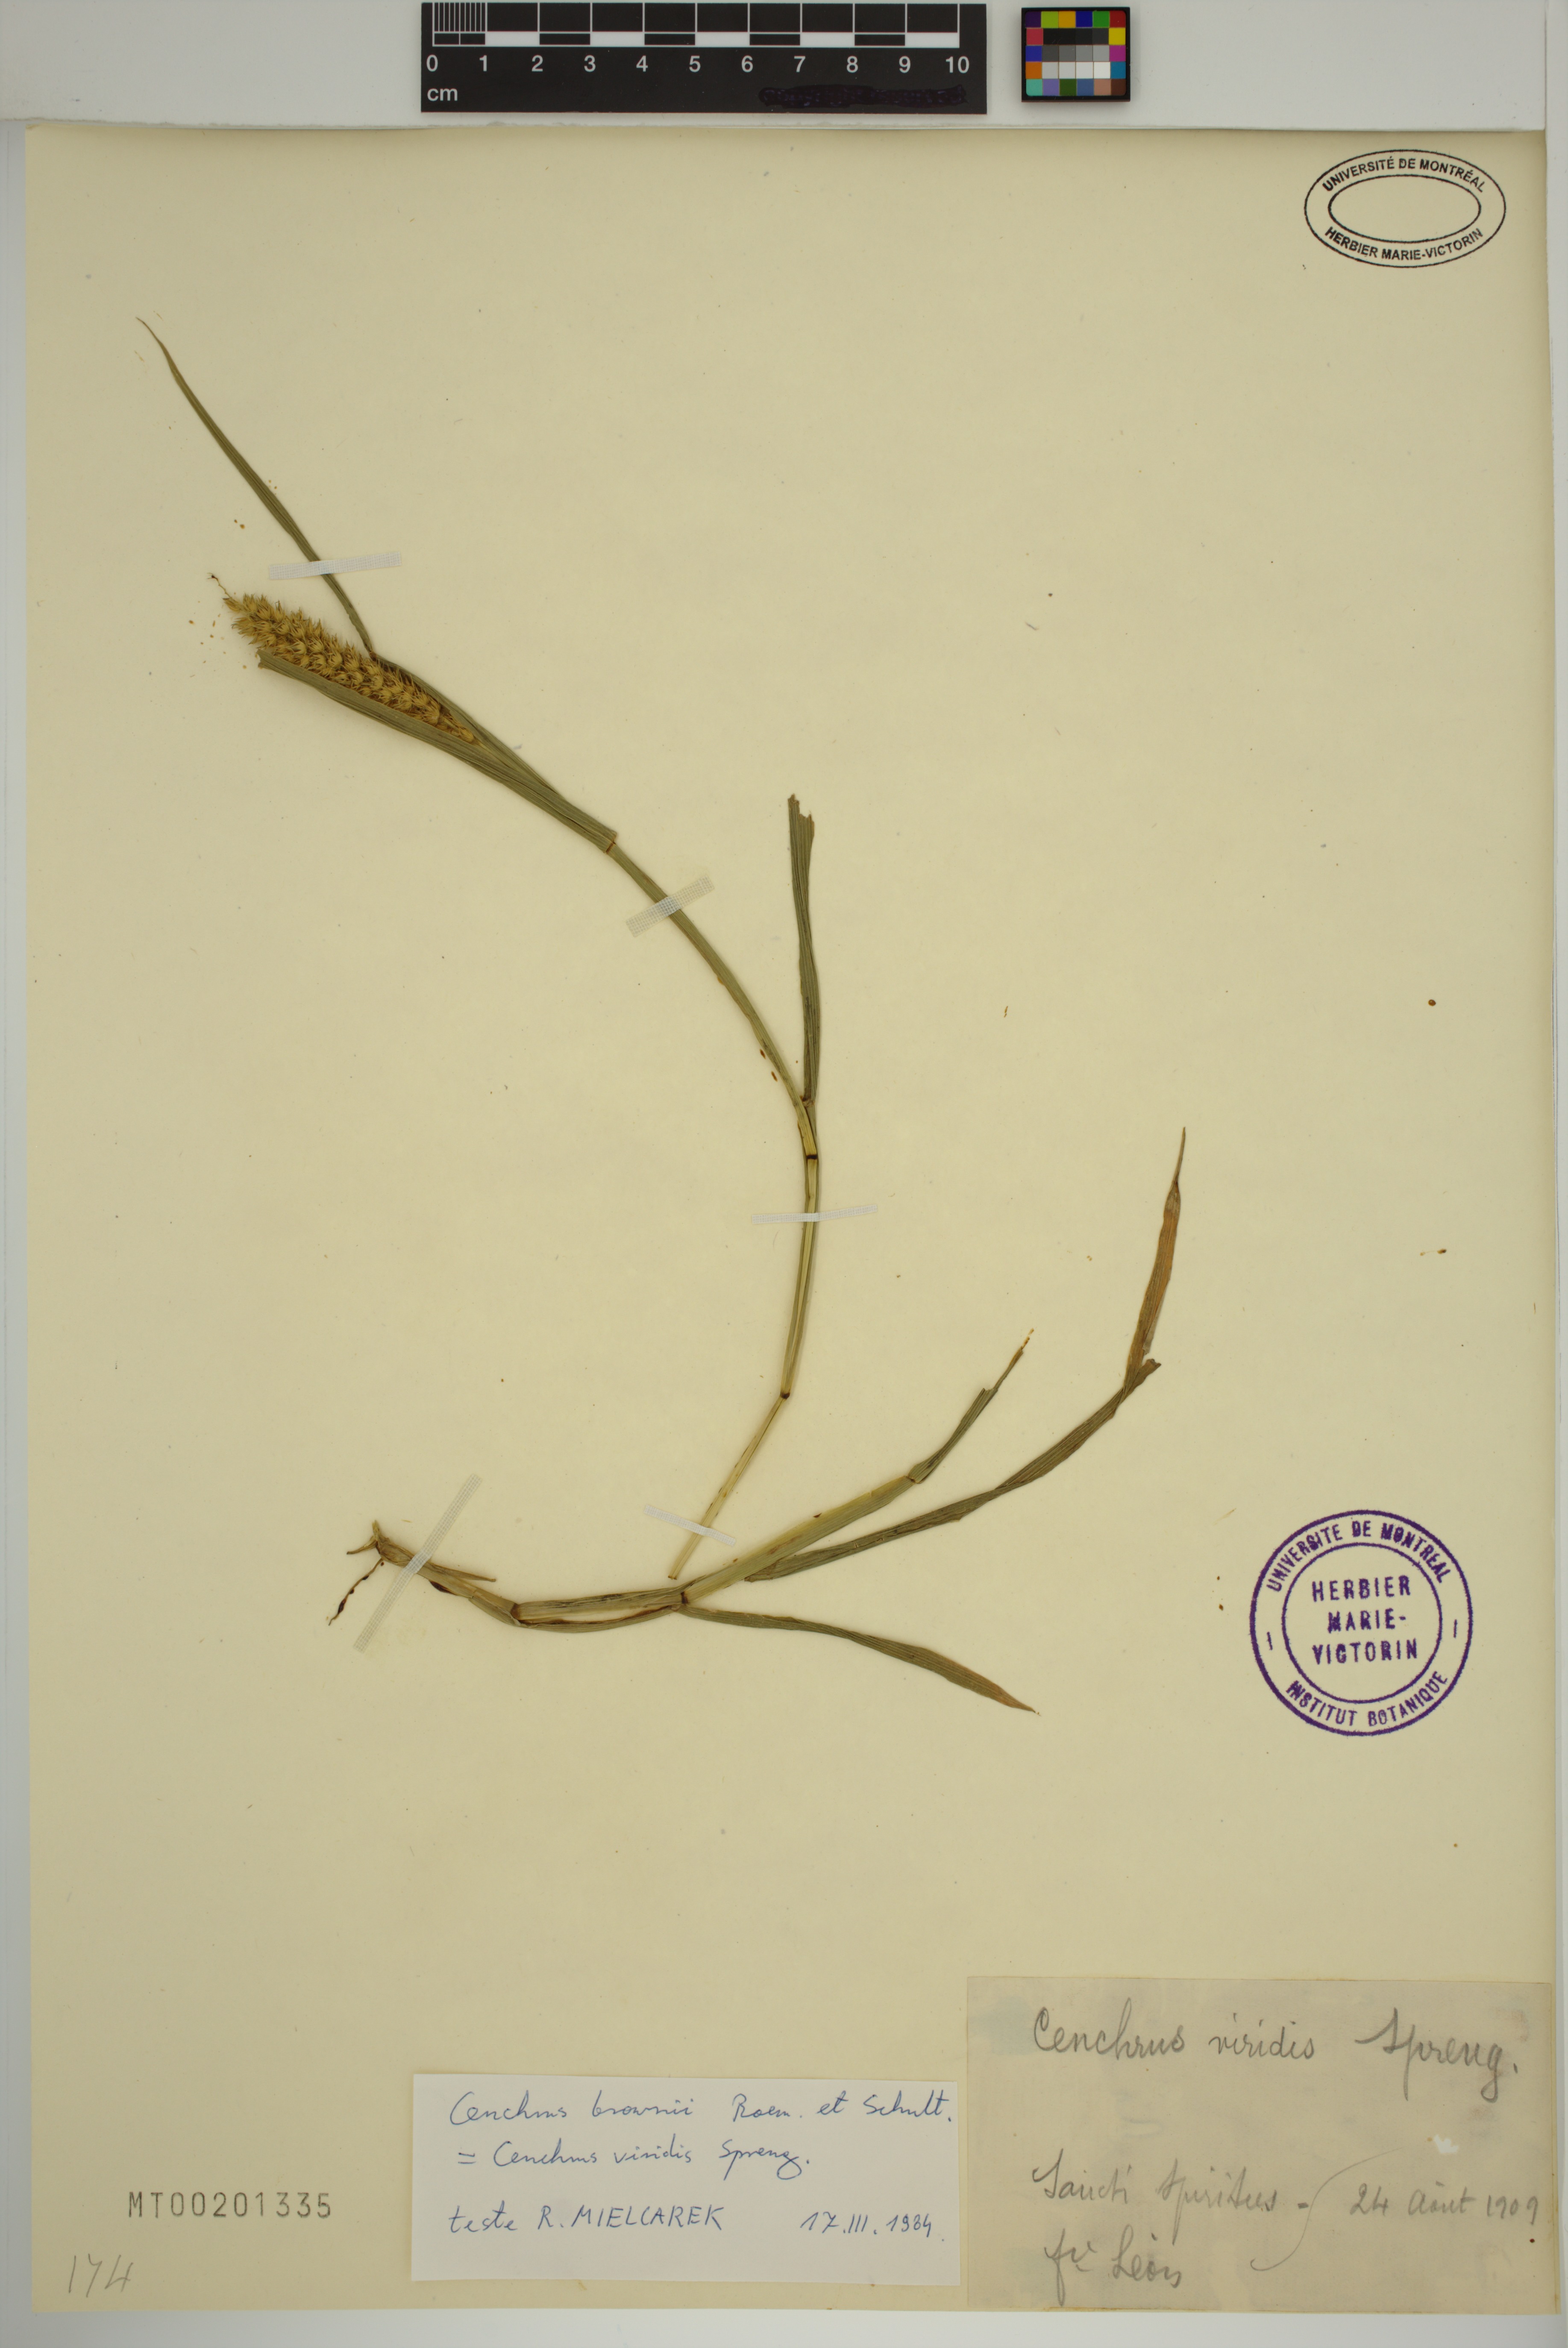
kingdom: Plantae
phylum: Tracheophyta
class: Liliopsida
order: Poales
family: Poaceae
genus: Cenchrus
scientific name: Cenchrus brownii
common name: Slim-bristle sandbur
